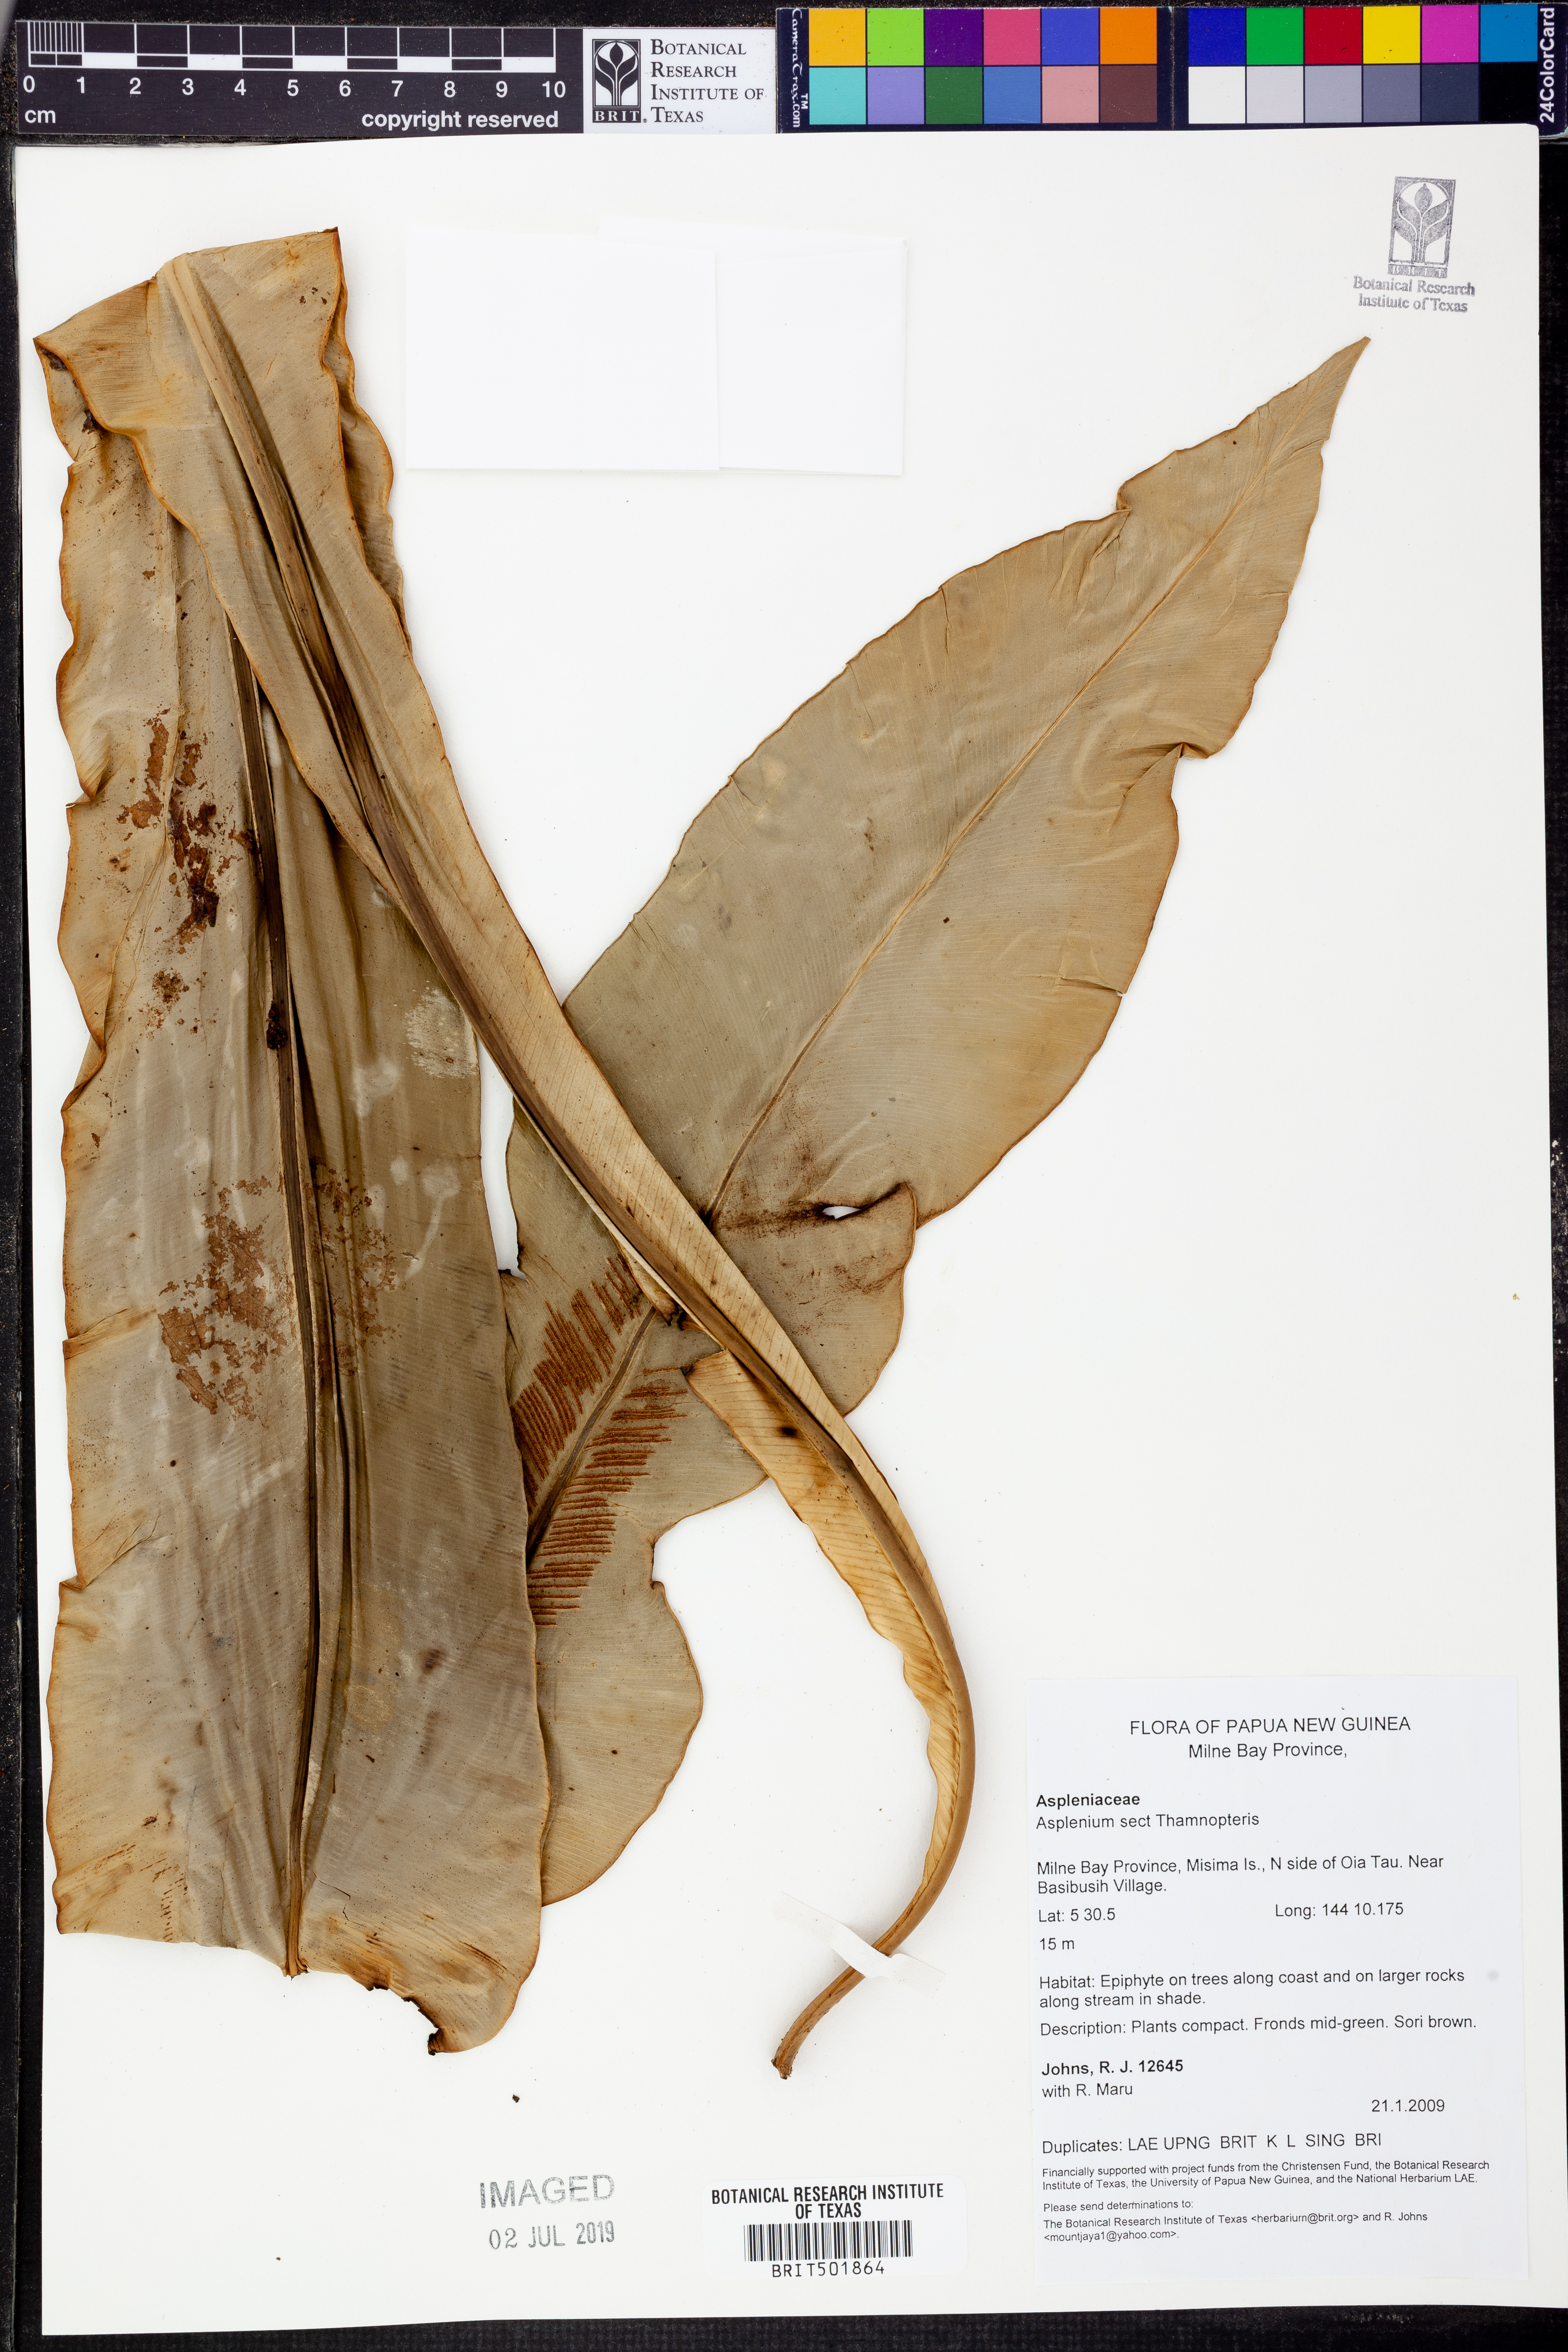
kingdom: Plantae
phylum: Tracheophyta
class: Polypodiopsida
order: Polypodiales
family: Aspleniaceae
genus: Asplenium
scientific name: Asplenium
